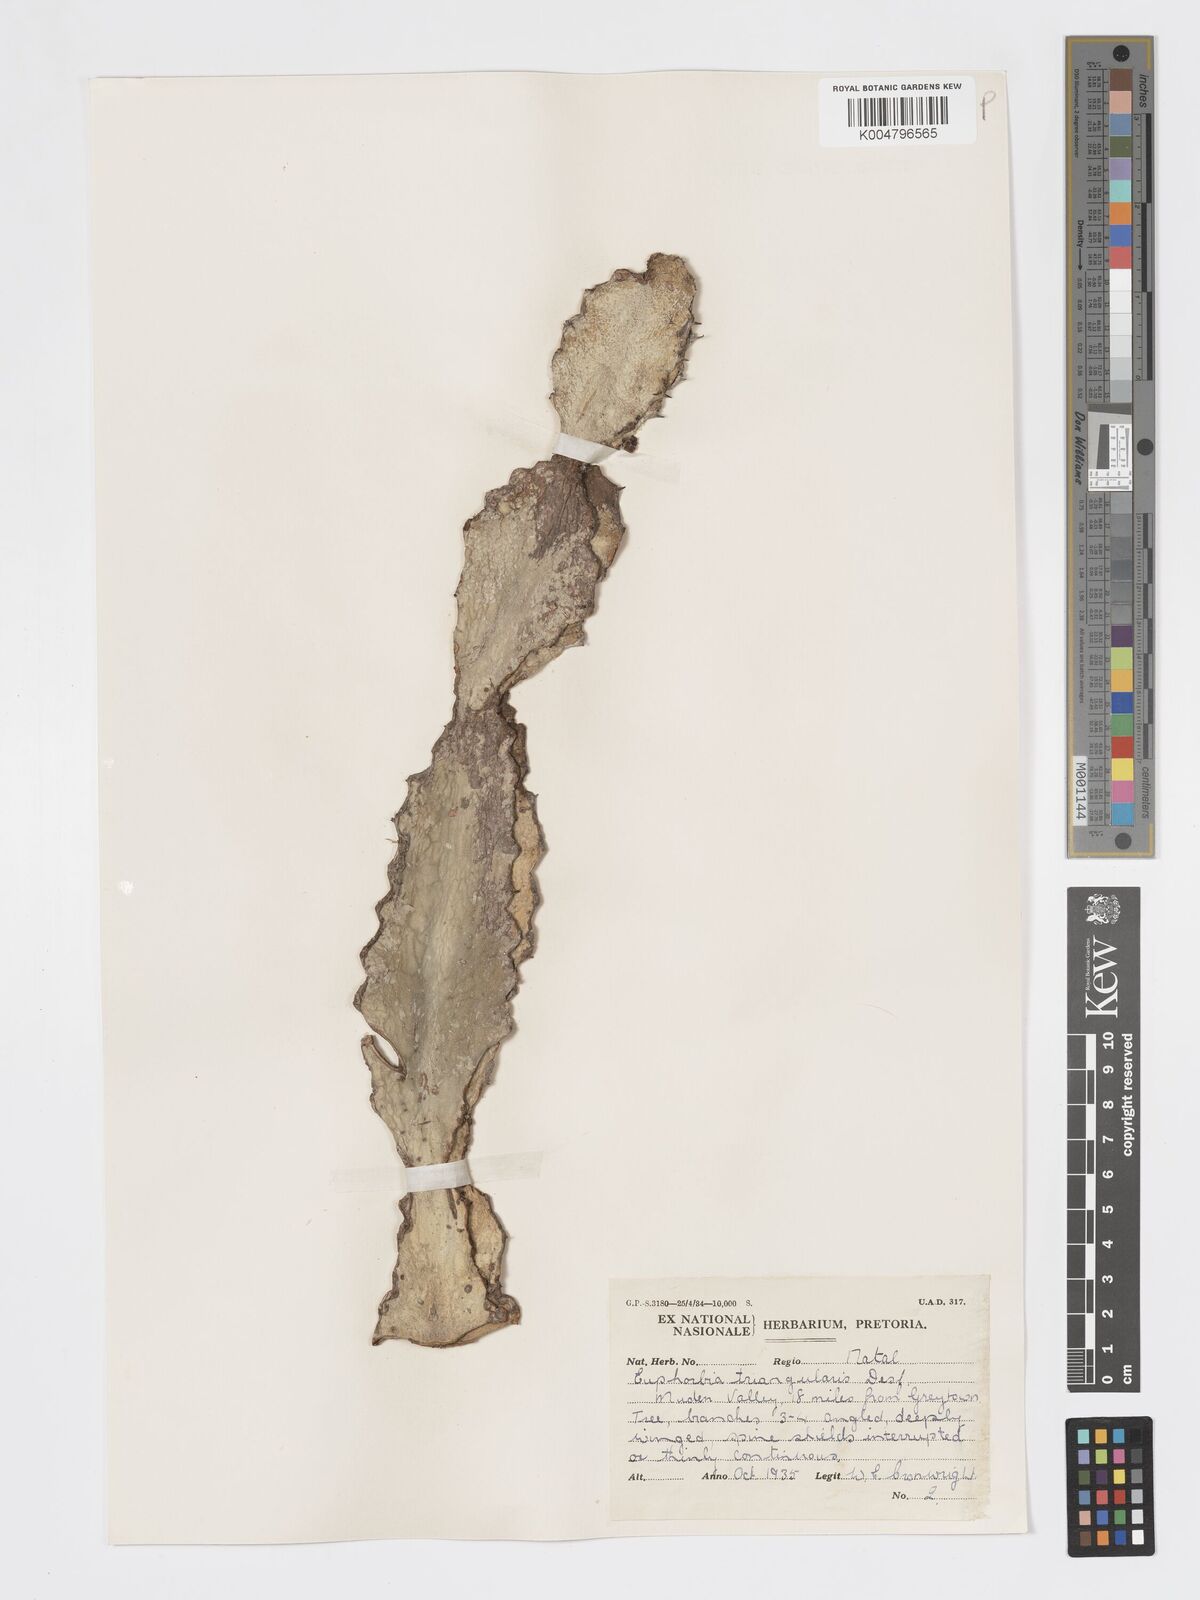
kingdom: Plantae
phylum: Tracheophyta
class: Magnoliopsida
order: Malpighiales
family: Euphorbiaceae
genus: Euphorbia
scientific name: Euphorbia triangularis
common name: Chandelier tree
